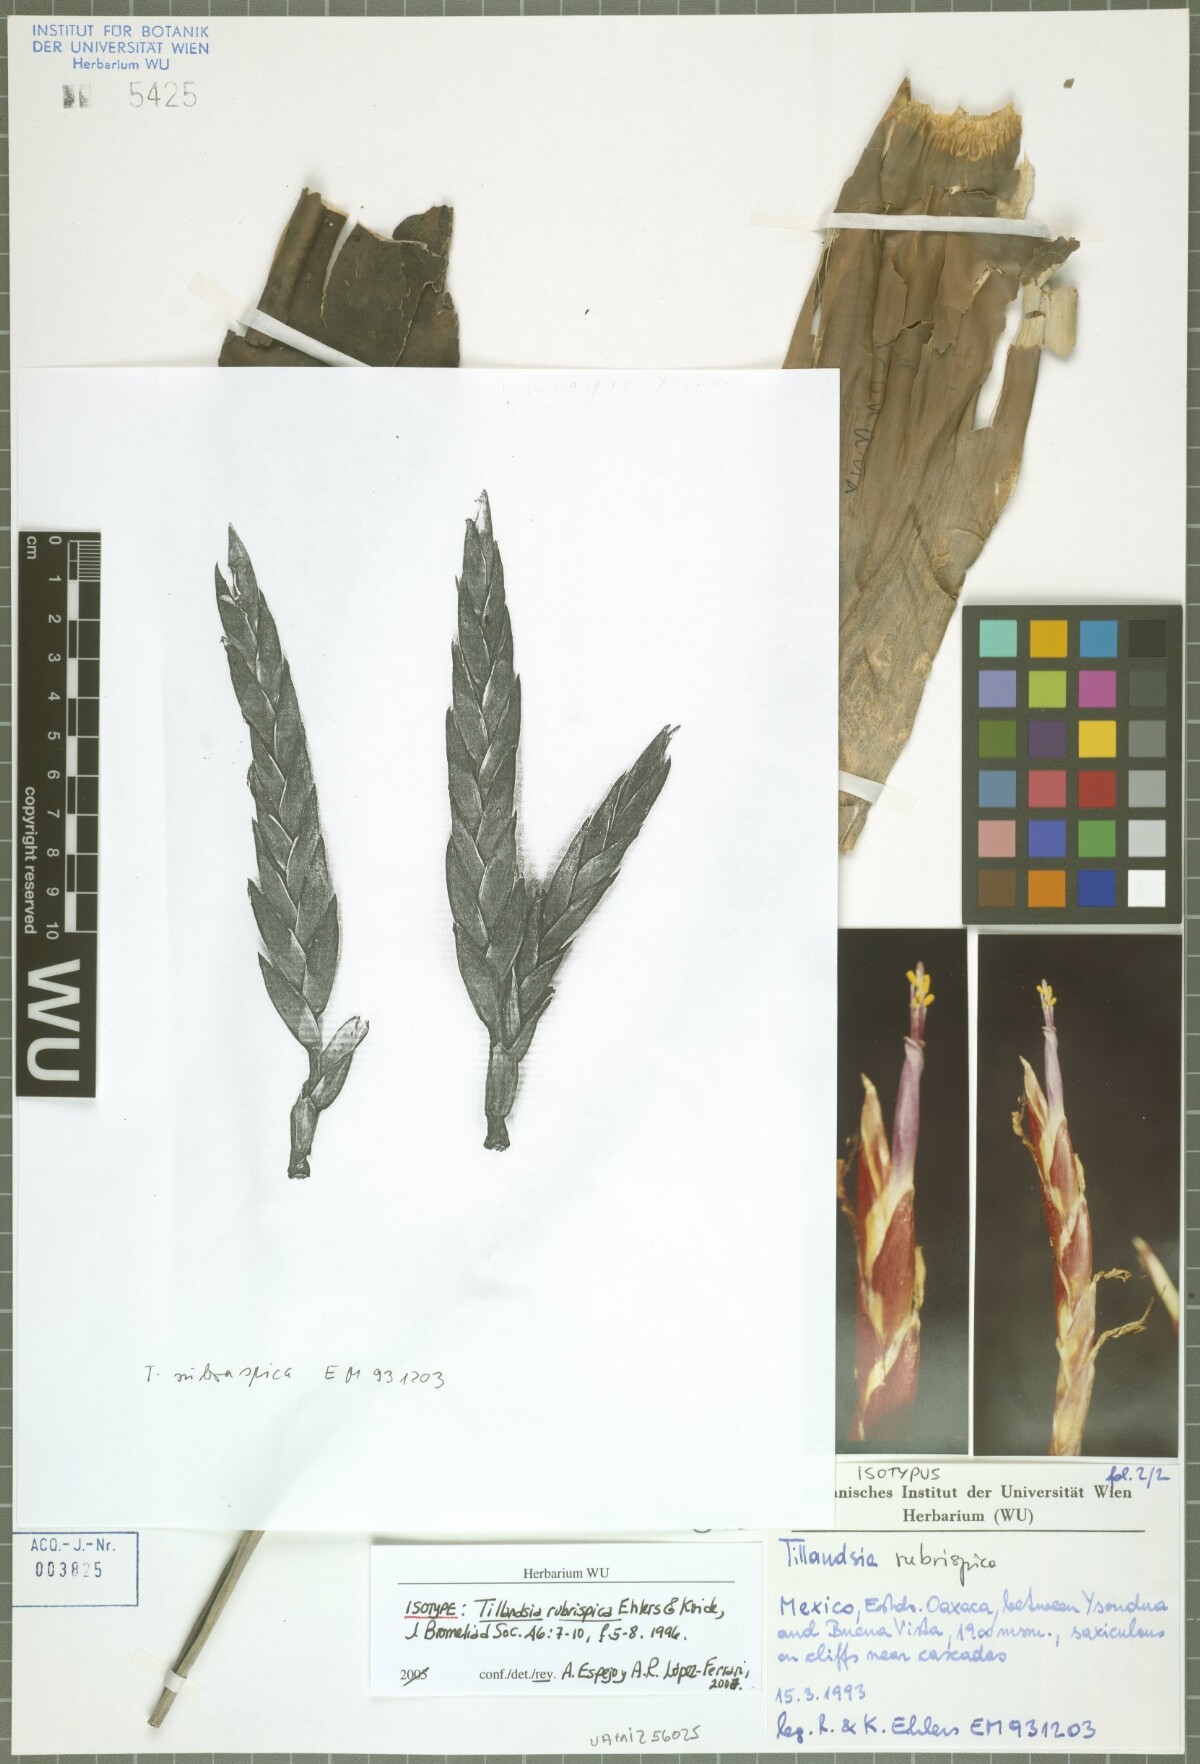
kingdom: Plantae
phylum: Tracheophyta
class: Liliopsida
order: Poales
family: Bromeliaceae
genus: Tillandsia
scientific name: Tillandsia rubrispica
